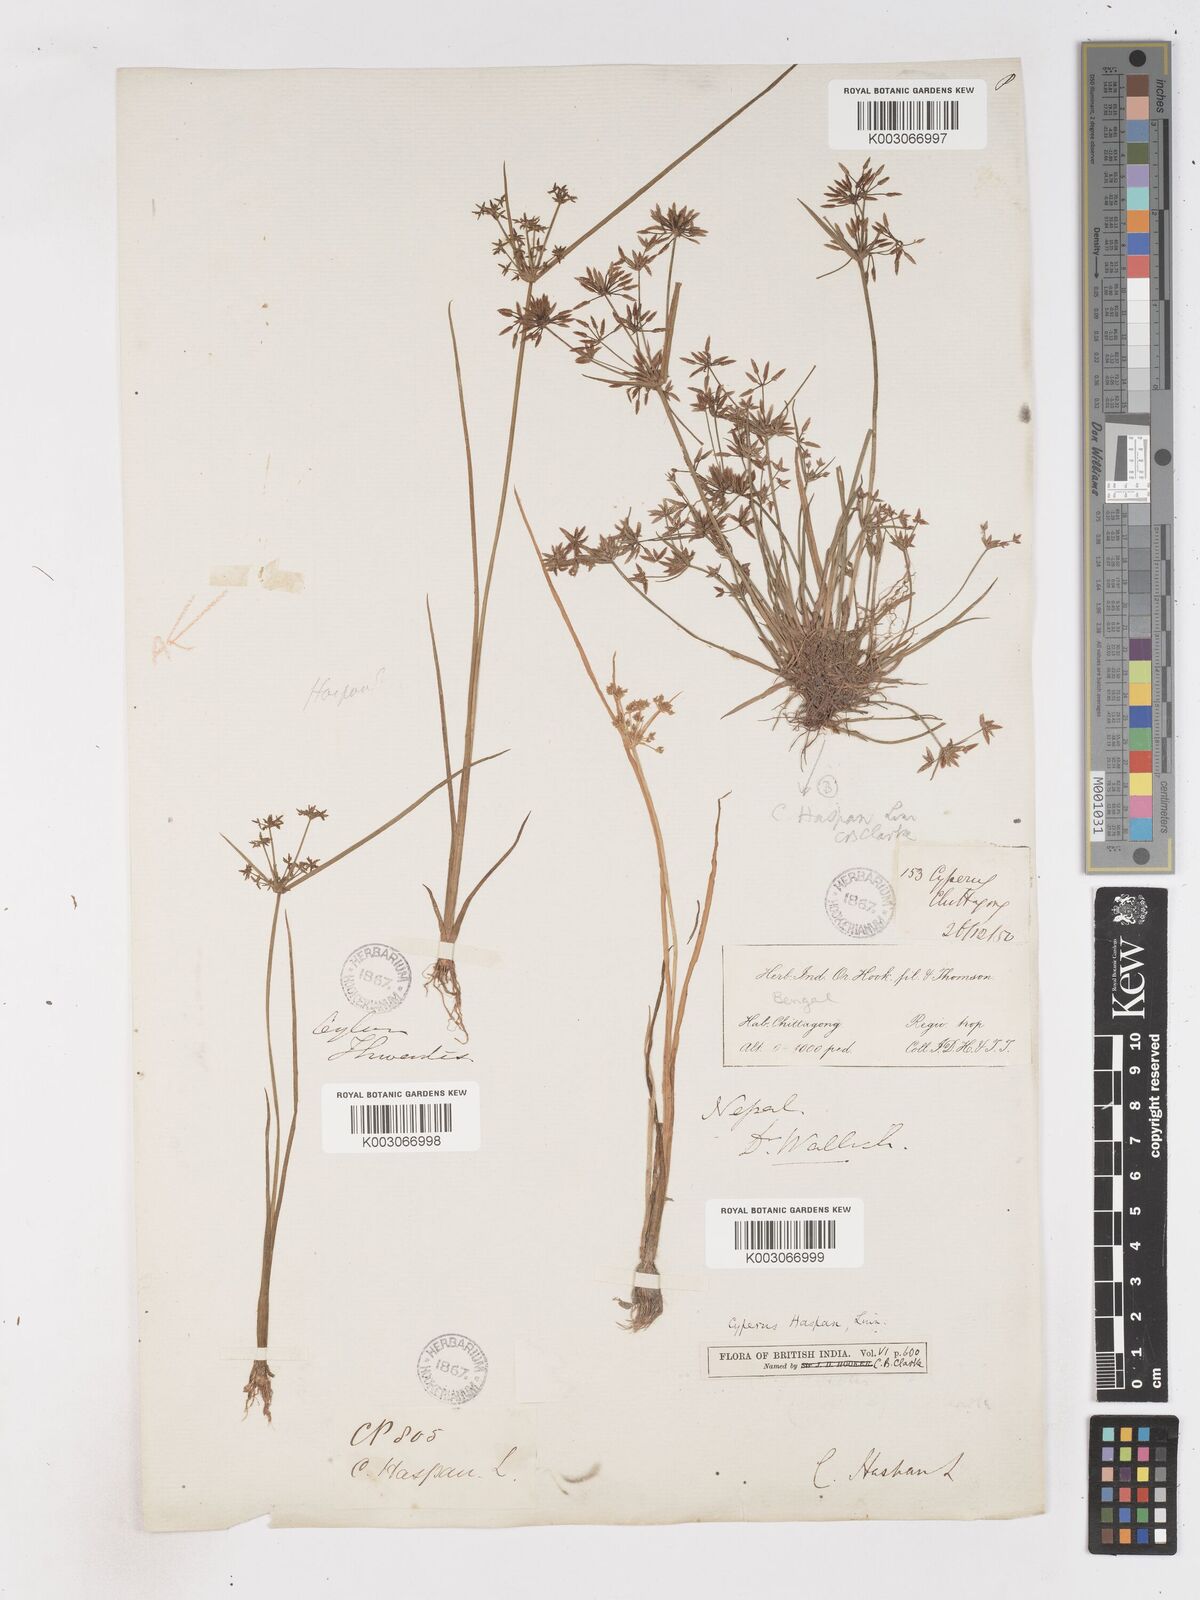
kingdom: Plantae
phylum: Tracheophyta
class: Liliopsida
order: Poales
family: Cyperaceae
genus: Cyperus
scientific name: Cyperus haspan
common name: Haspan flatsedge
